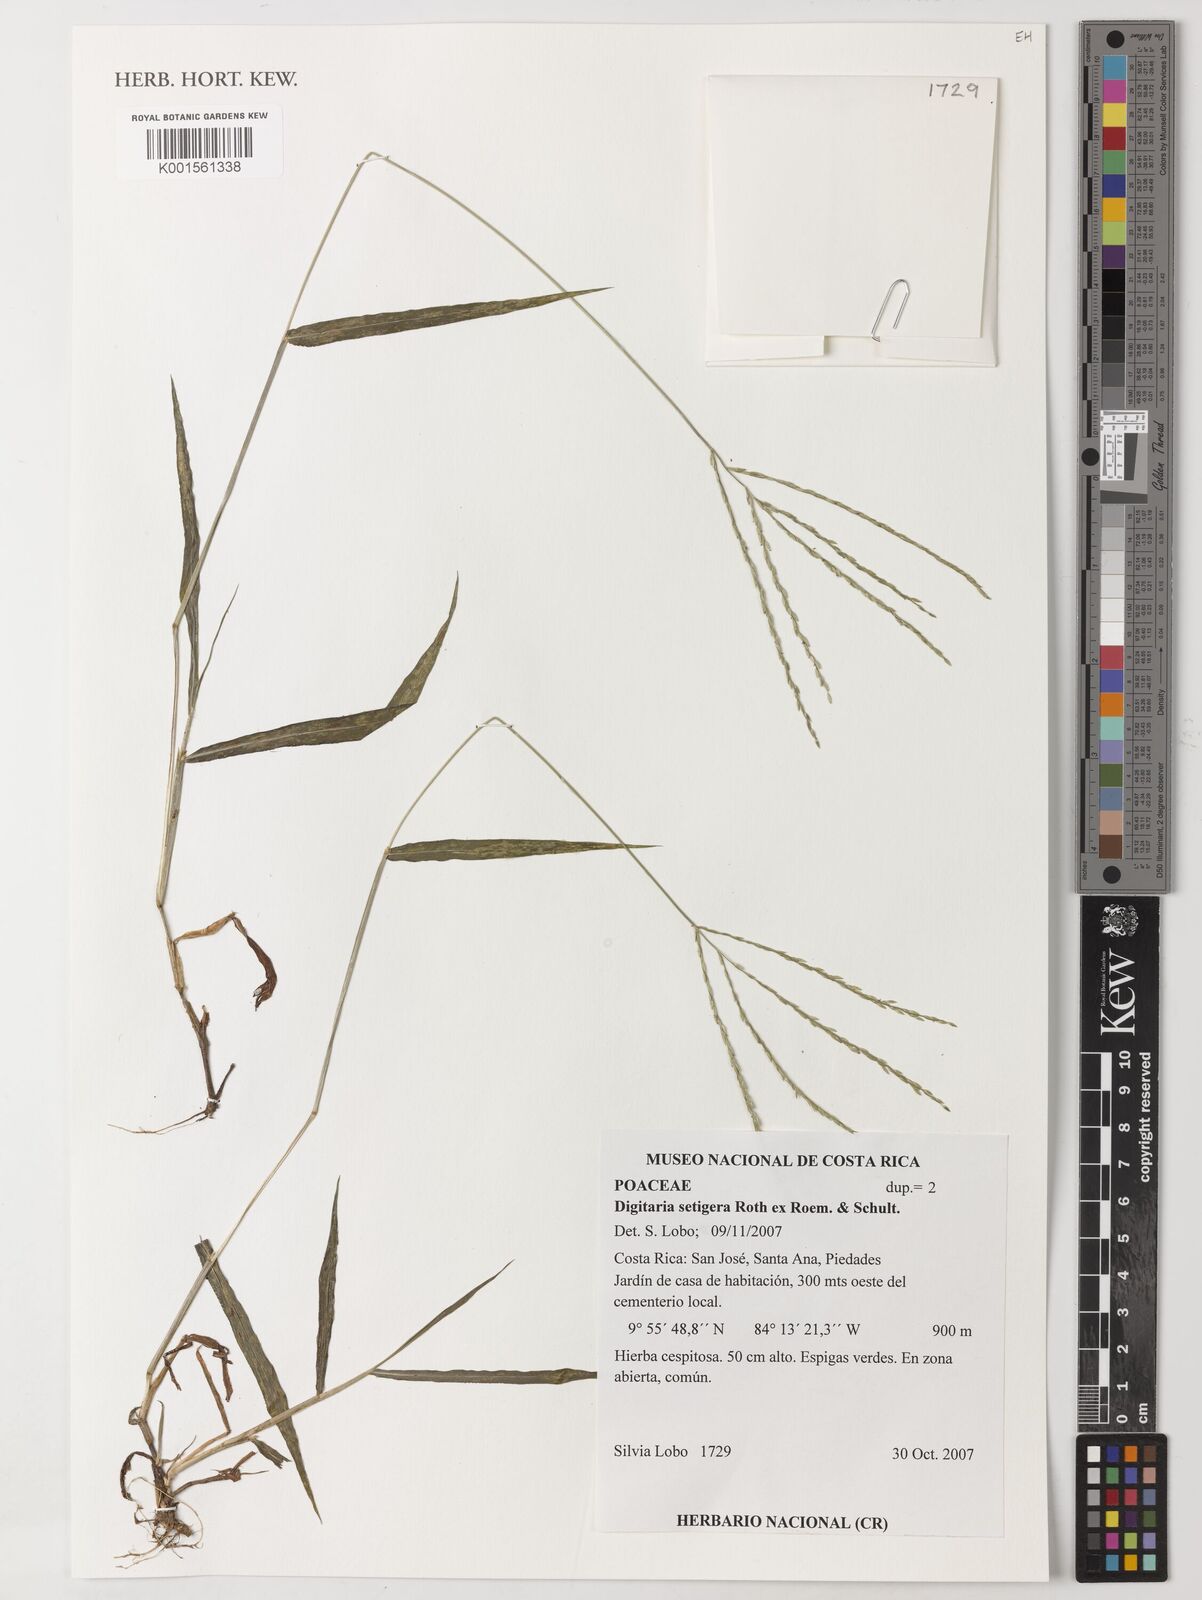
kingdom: Plantae
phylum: Tracheophyta
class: Liliopsida
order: Poales
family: Poaceae
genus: Digitaria
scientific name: Digitaria setigera
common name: East indian crabgrass
